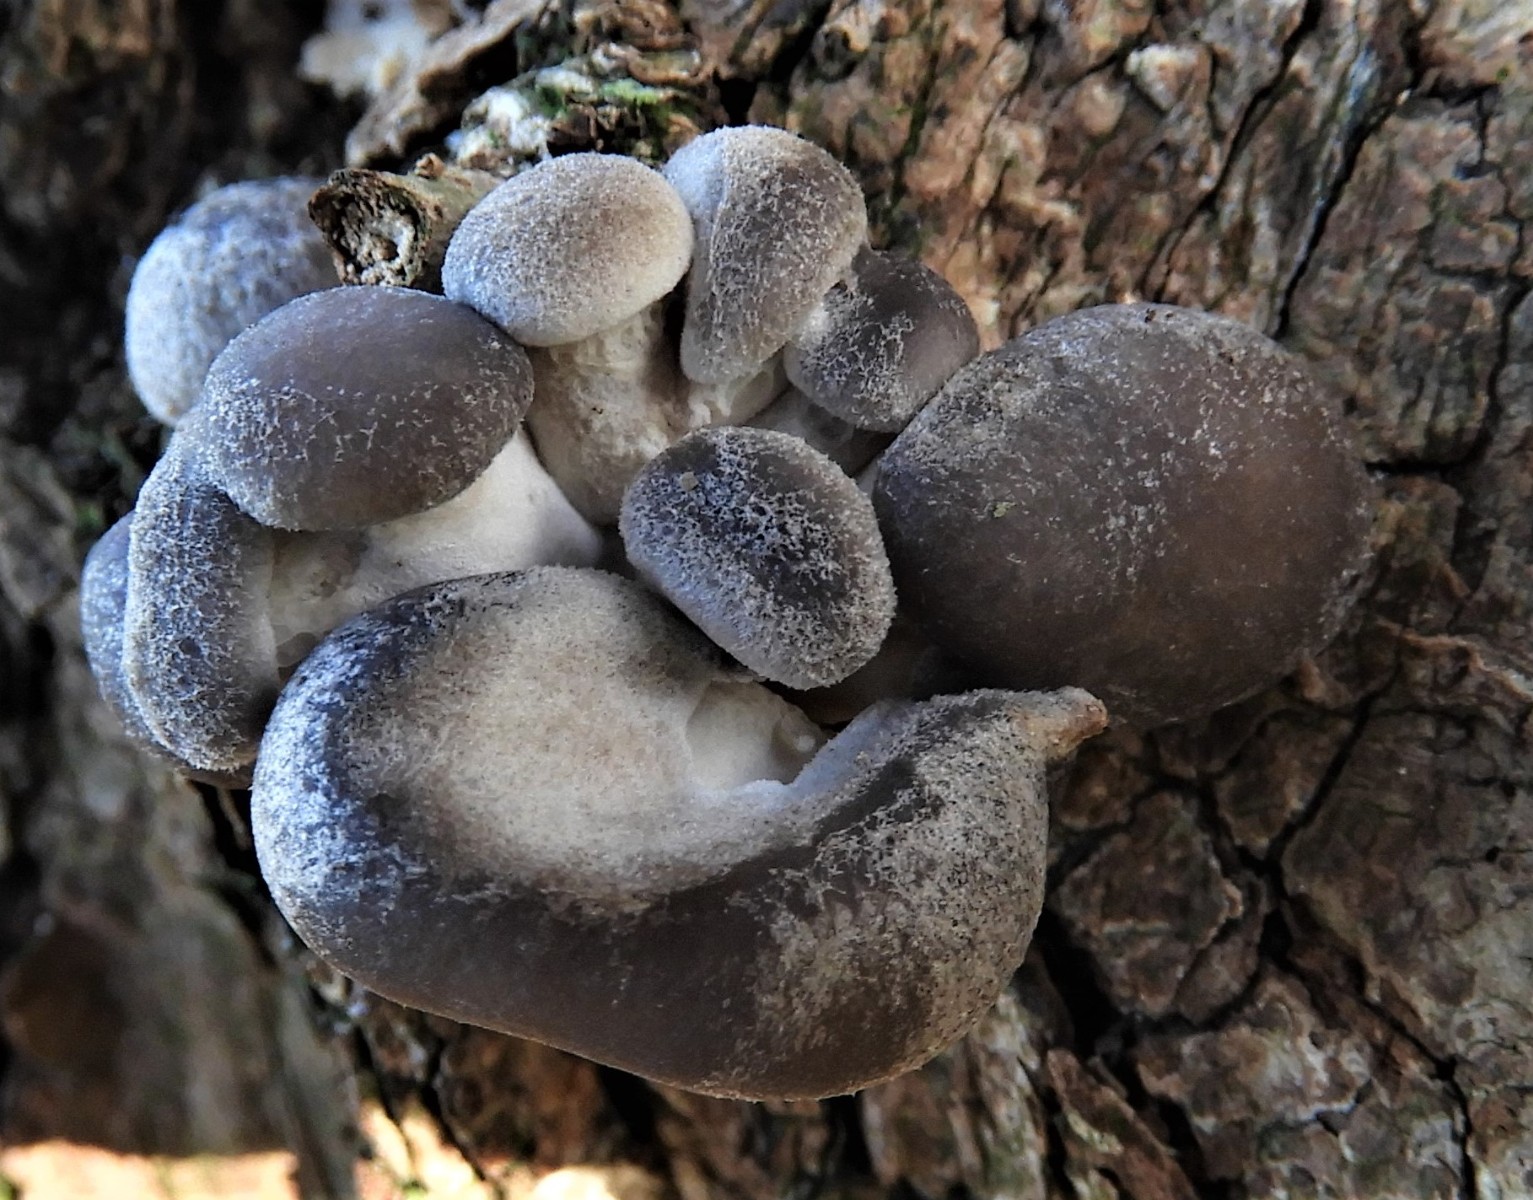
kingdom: Fungi
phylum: Basidiomycota
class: Agaricomycetes
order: Agaricales
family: Pleurotaceae
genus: Pleurotus
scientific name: Pleurotus ostreatus
